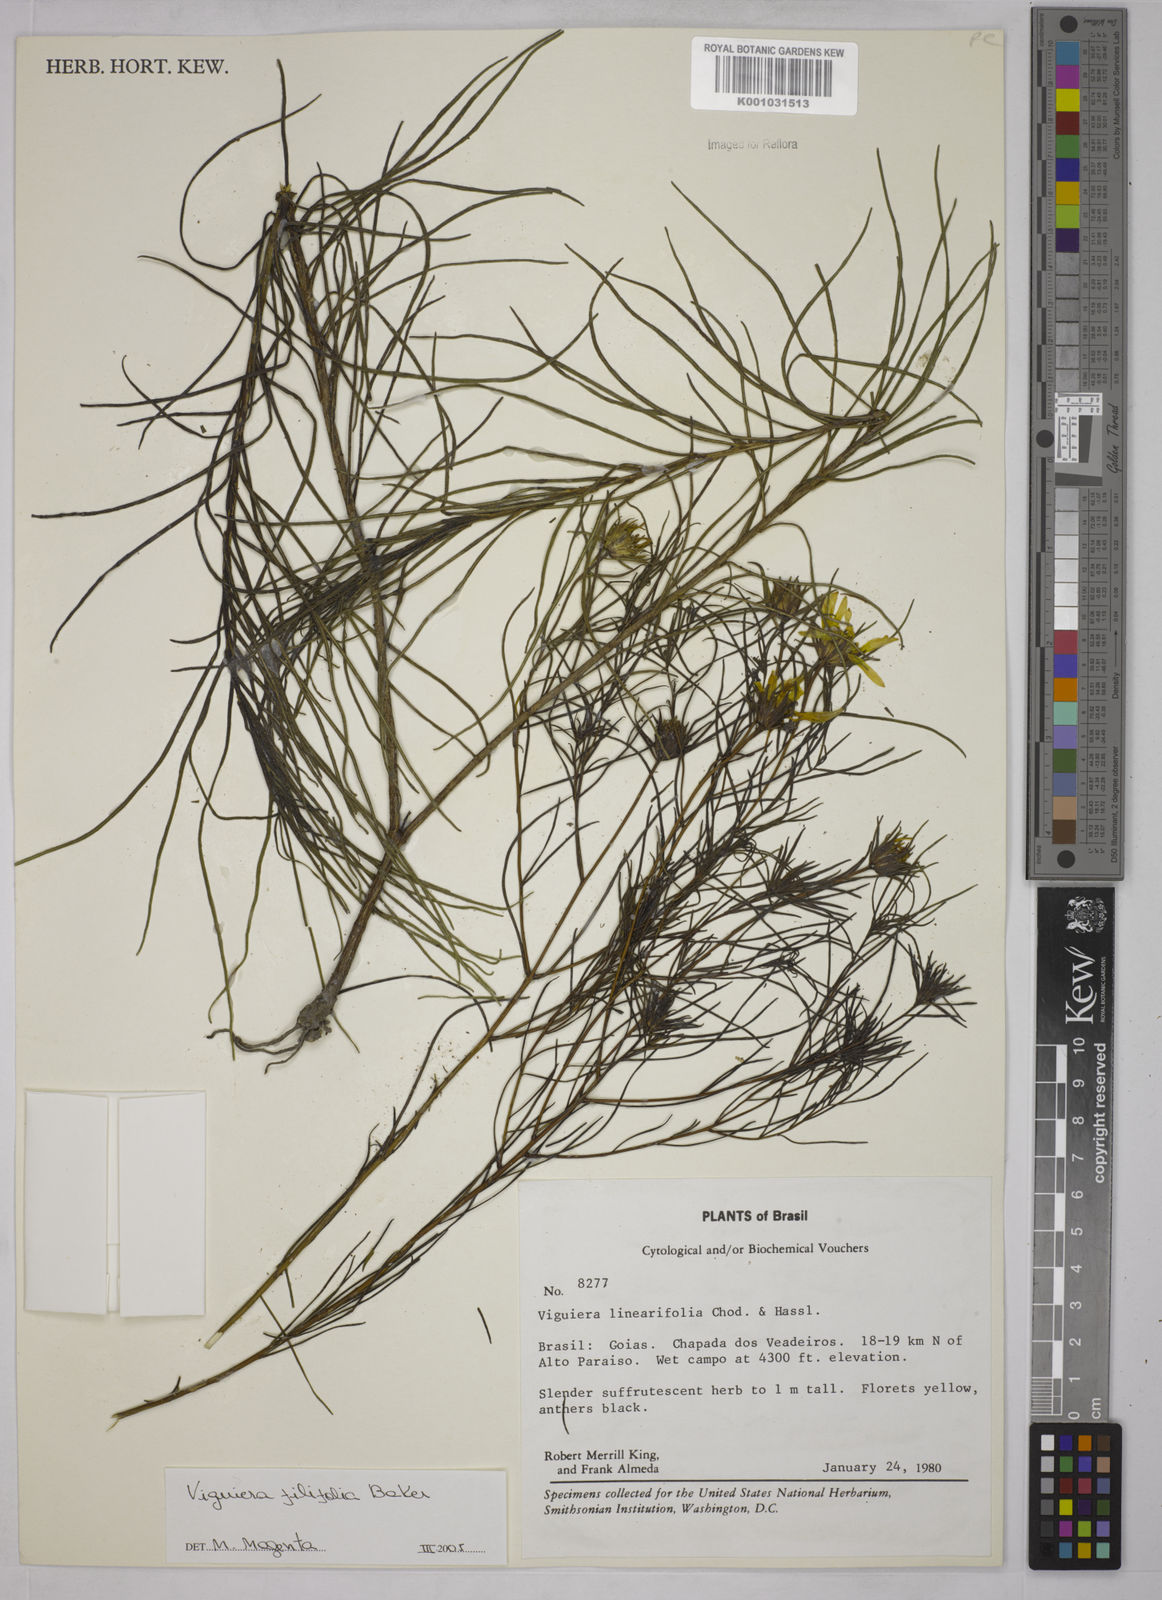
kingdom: Plantae
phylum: Tracheophyta
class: Magnoliopsida
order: Asterales
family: Asteraceae
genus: Aldama
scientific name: Aldama filifolia
